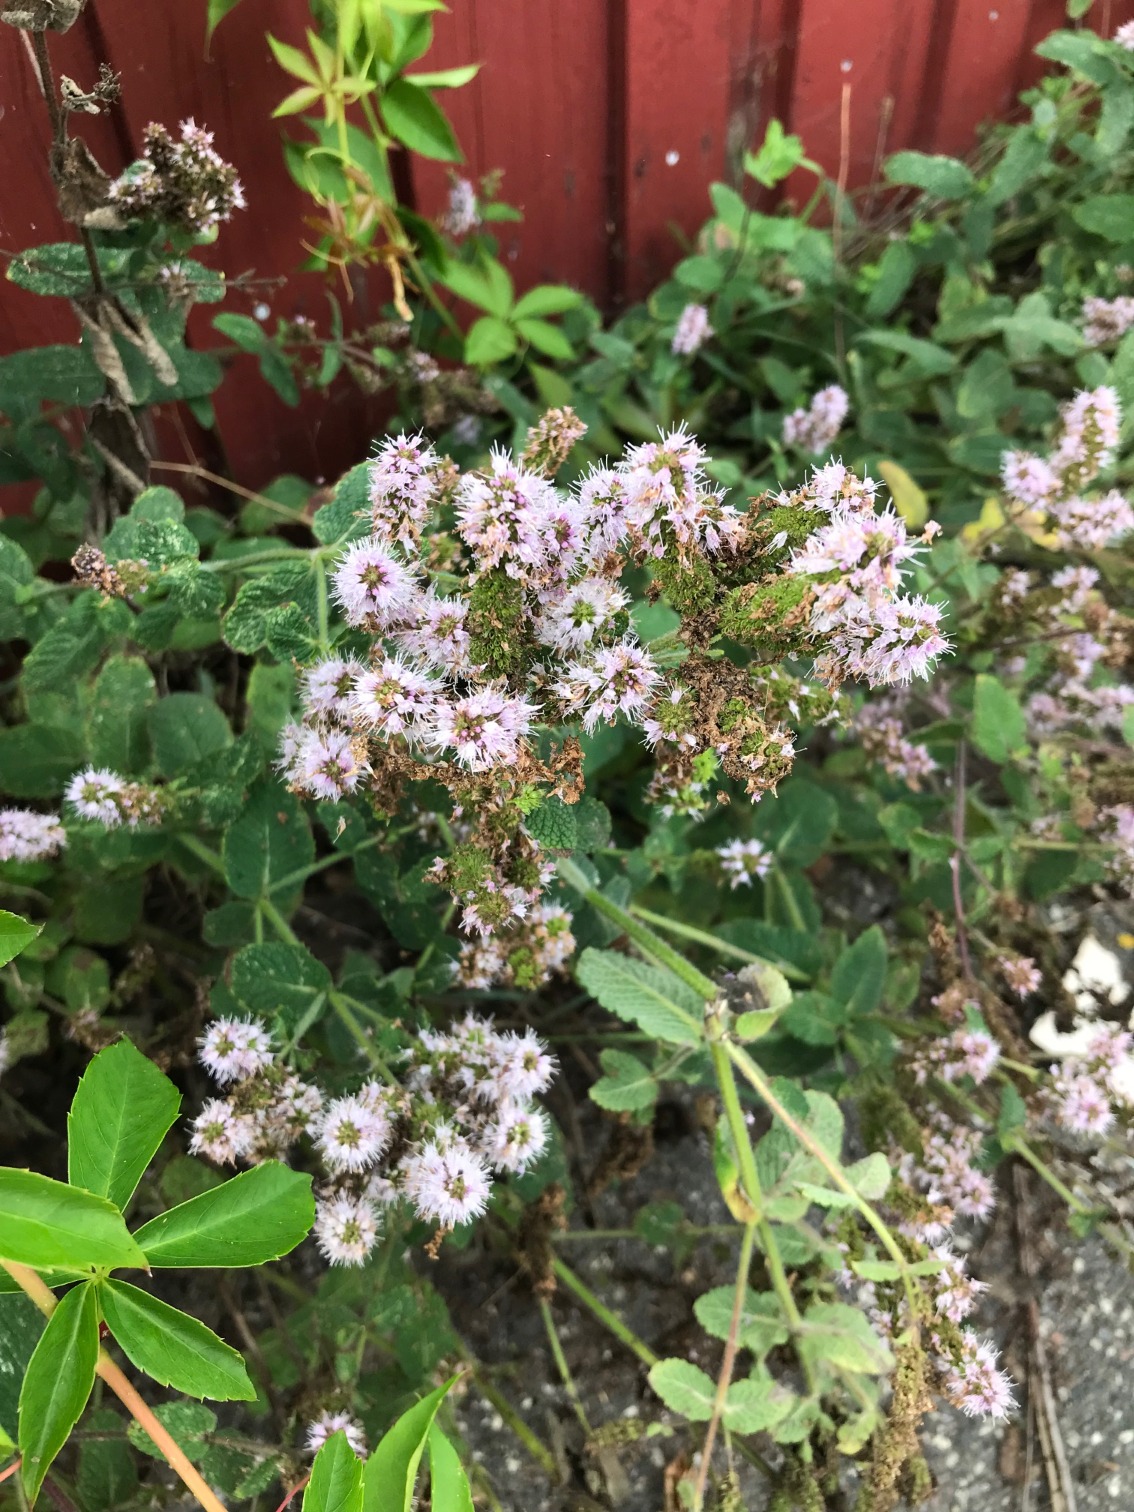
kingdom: Plantae
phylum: Tracheophyta
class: Magnoliopsida
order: Lamiales
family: Lamiaceae
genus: Mentha
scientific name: Mentha suaveolens
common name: Rundbladet mynte
